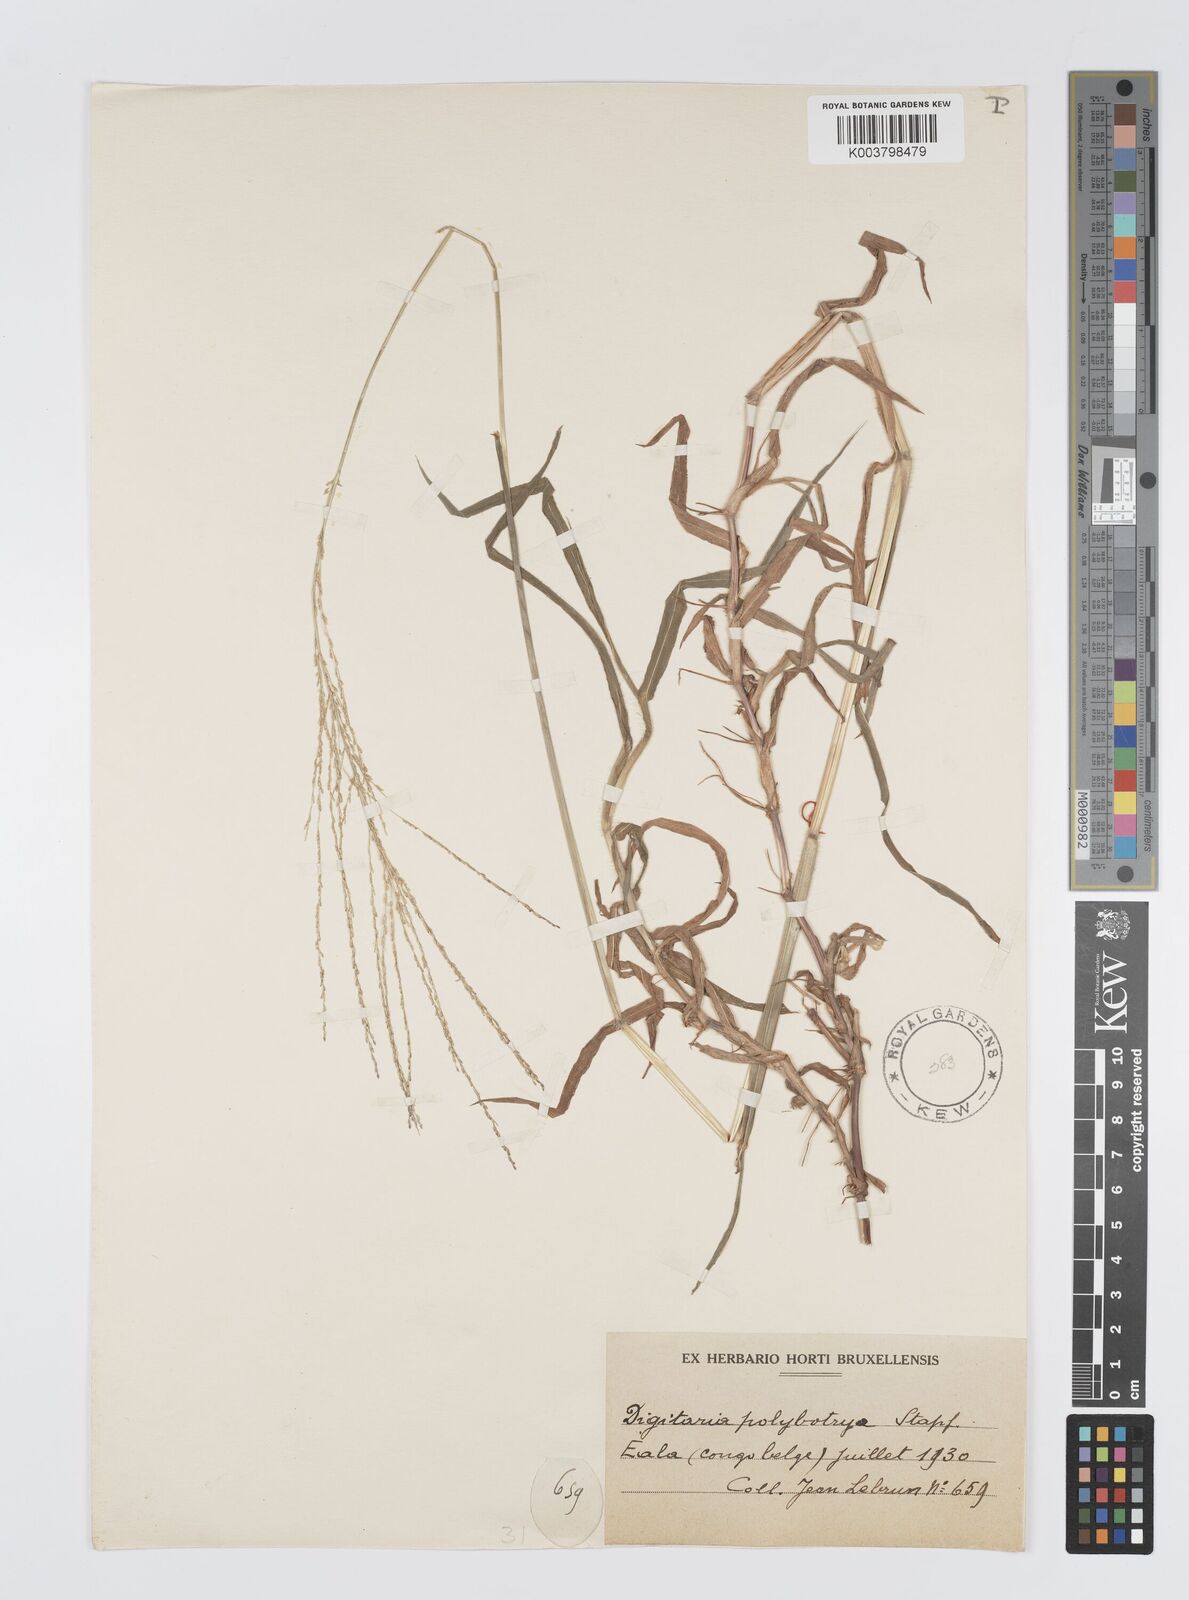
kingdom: Plantae
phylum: Tracheophyta
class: Liliopsida
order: Poales
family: Poaceae
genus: Digitaria
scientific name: Digitaria leptorhachis
